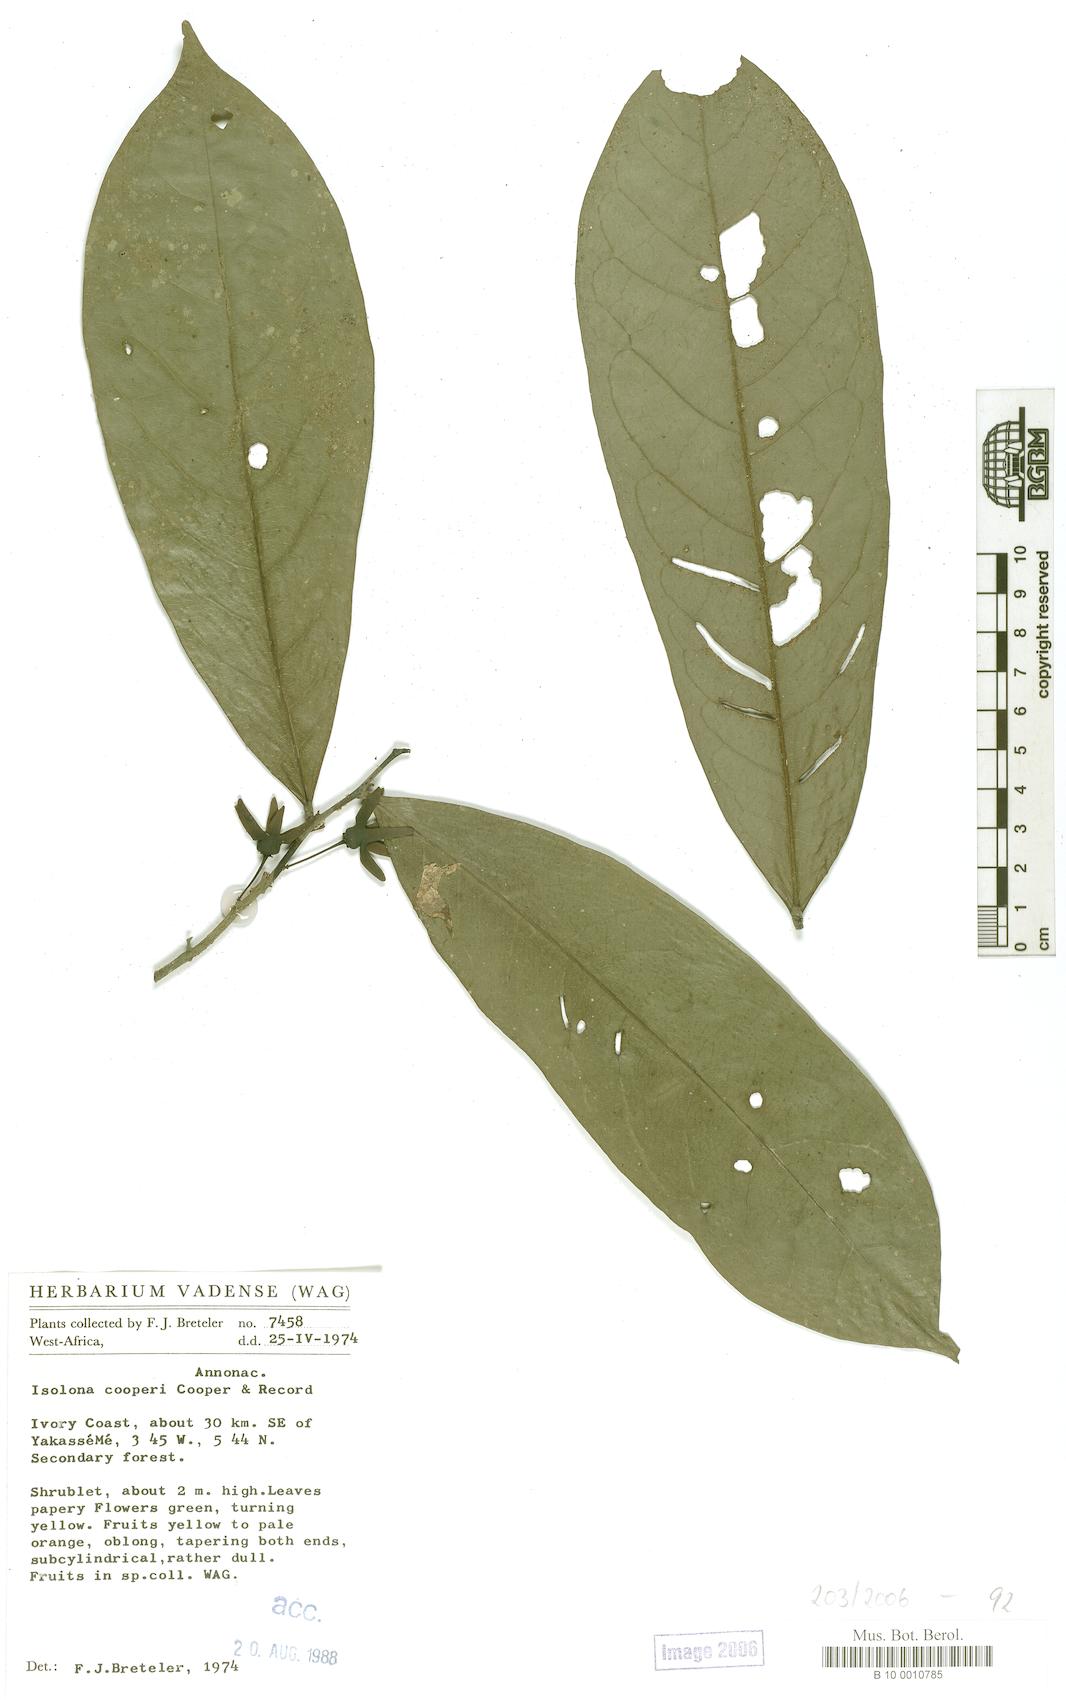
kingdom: Plantae
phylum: Tracheophyta
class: Magnoliopsida
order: Magnoliales
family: Annonaceae
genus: Isolona
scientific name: Isolona cooperi
